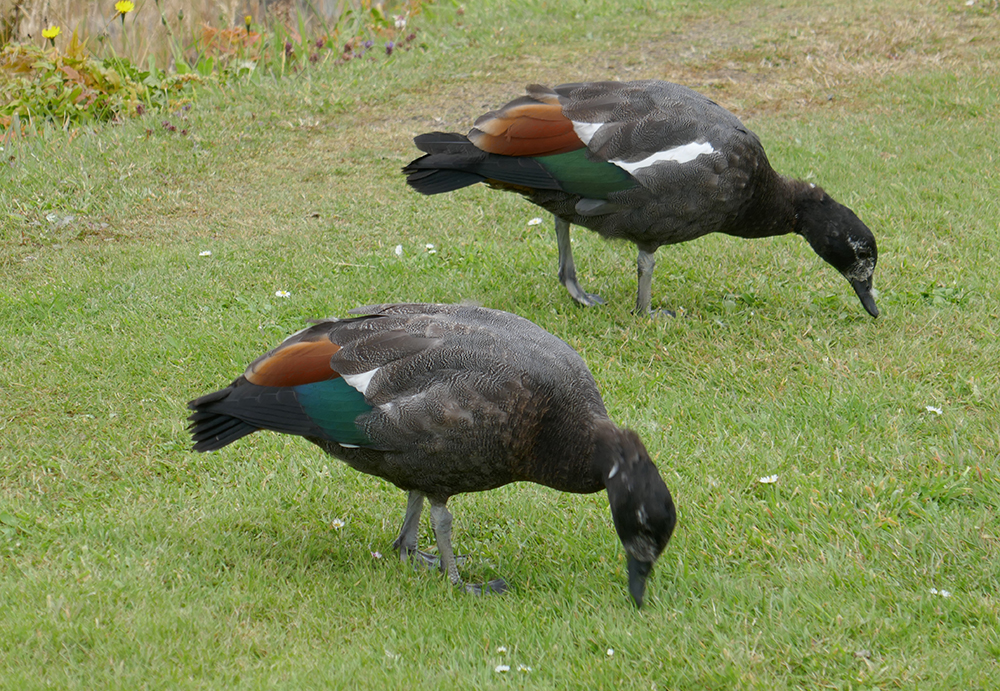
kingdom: Animalia
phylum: Chordata
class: Aves
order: Anseriformes
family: Anatidae
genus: Tadorna
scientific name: Tadorna variegata
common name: Paradise shelduck
